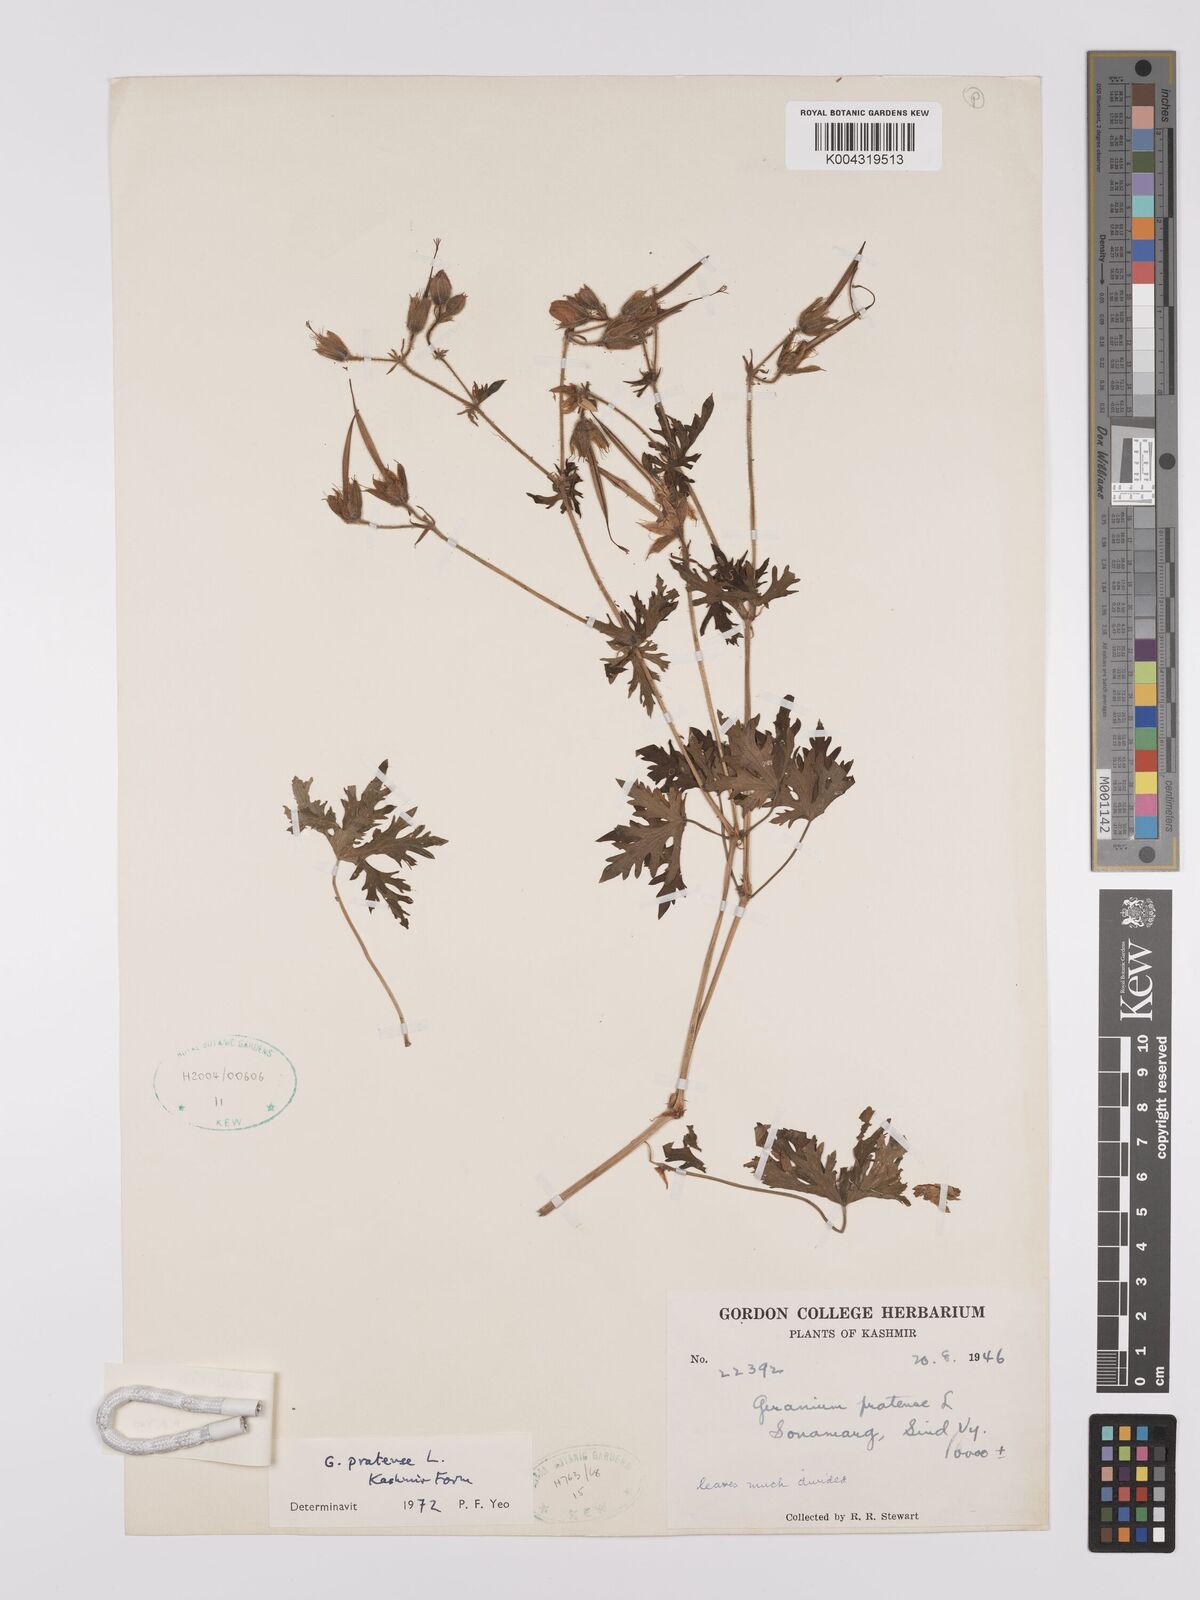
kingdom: Plantae
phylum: Tracheophyta
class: Magnoliopsida
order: Geraniales
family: Geraniaceae
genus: Geranium
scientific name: Geranium clarkei
